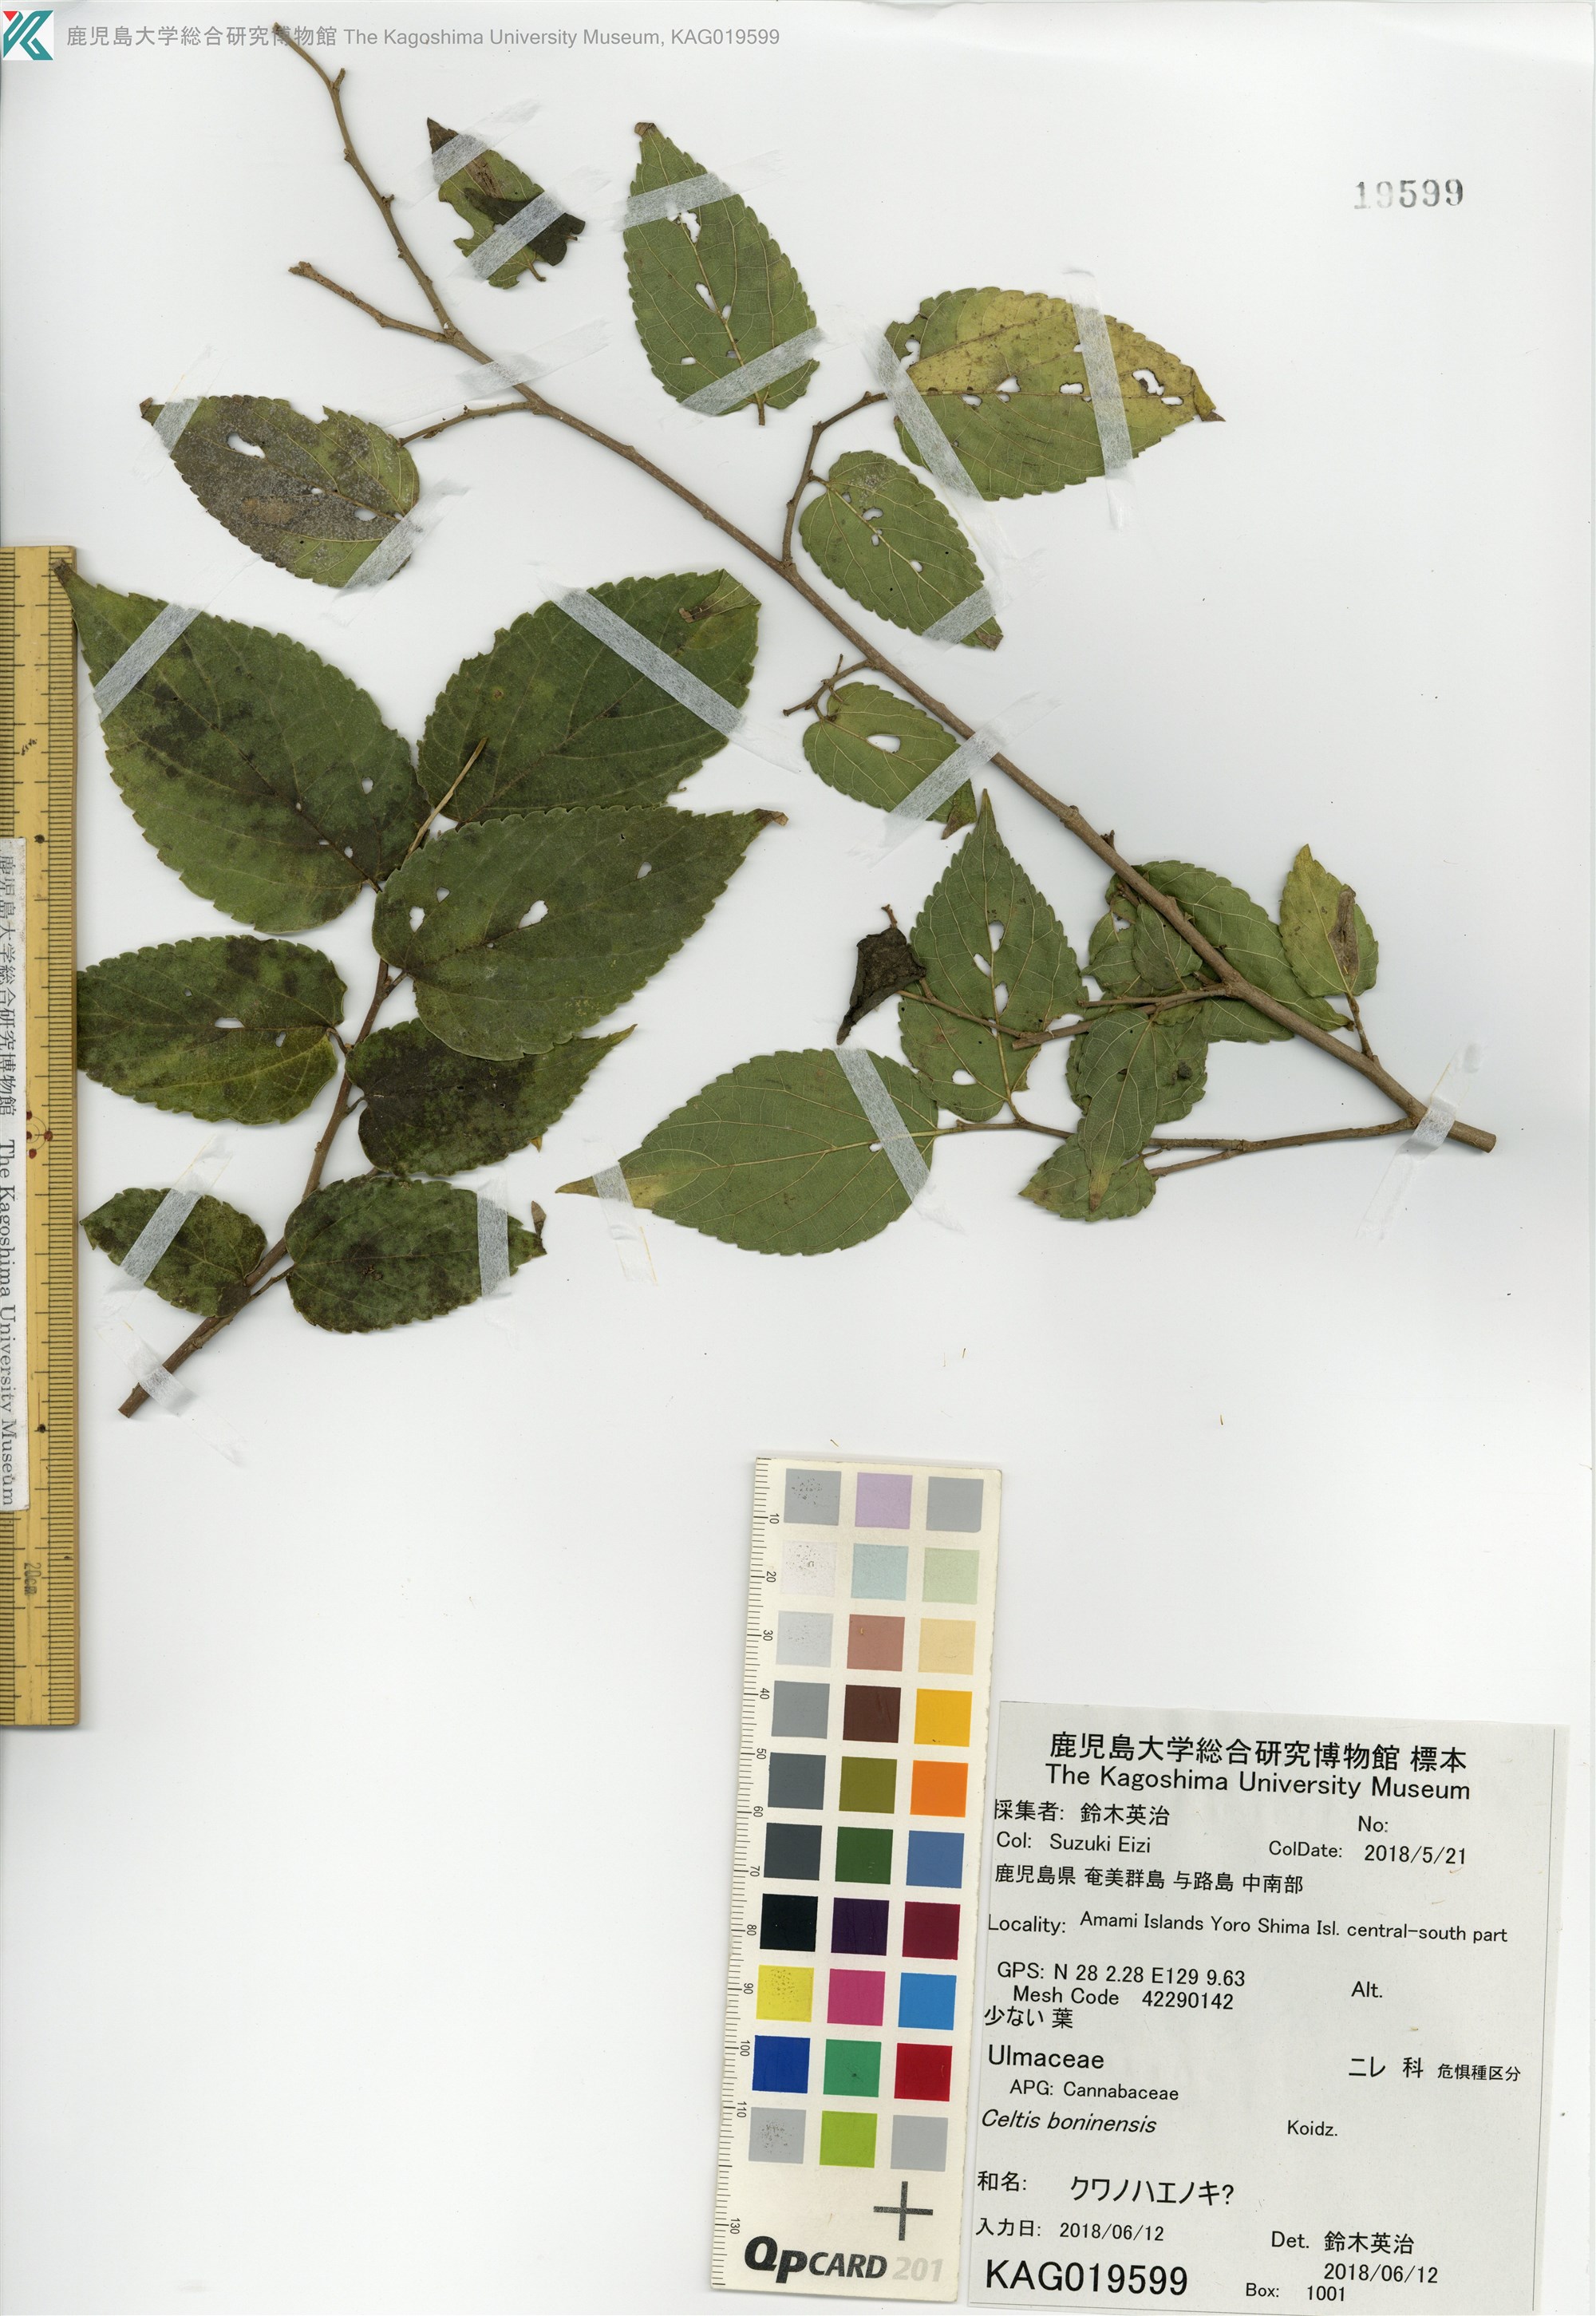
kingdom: Plantae
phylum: Tracheophyta
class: Magnoliopsida
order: Rosales
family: Cannabaceae
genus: Celtis
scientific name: Celtis boninensis
